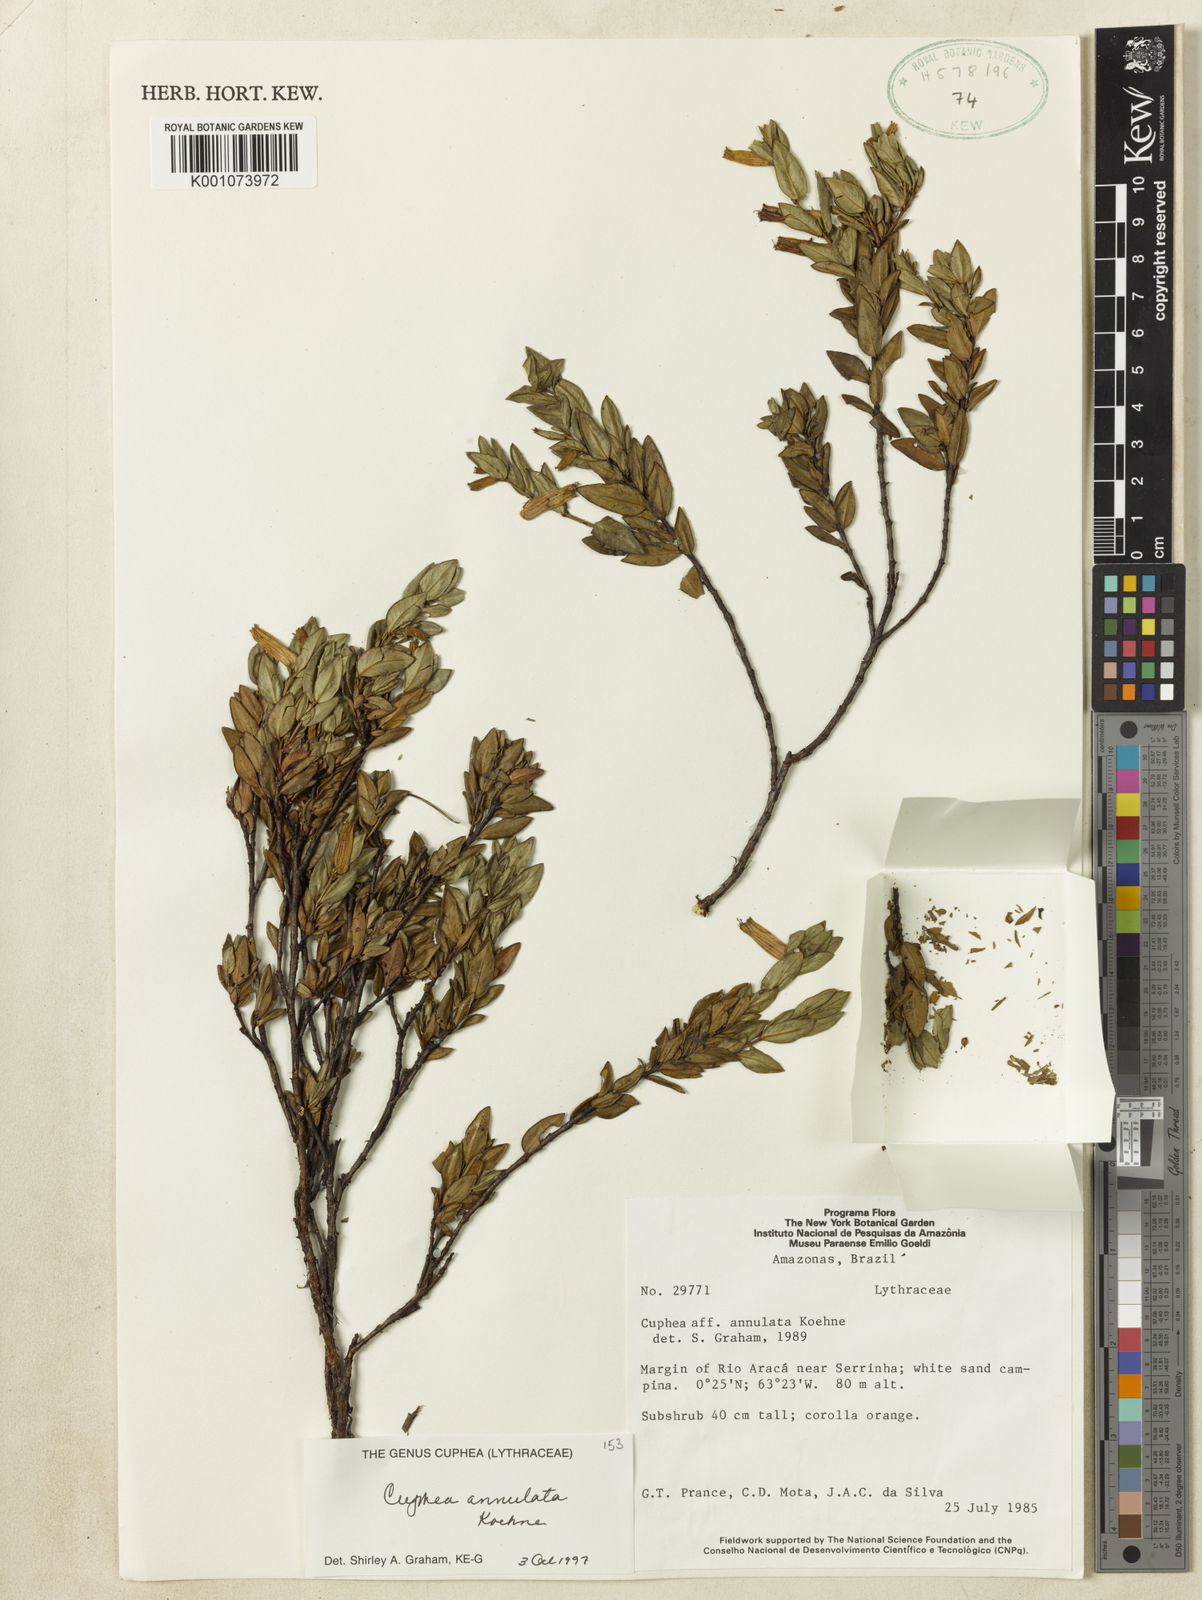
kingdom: Plantae
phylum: Tracheophyta
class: Magnoliopsida
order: Myrtales
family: Lythraceae
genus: Cuphea
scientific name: Cuphea annulata
